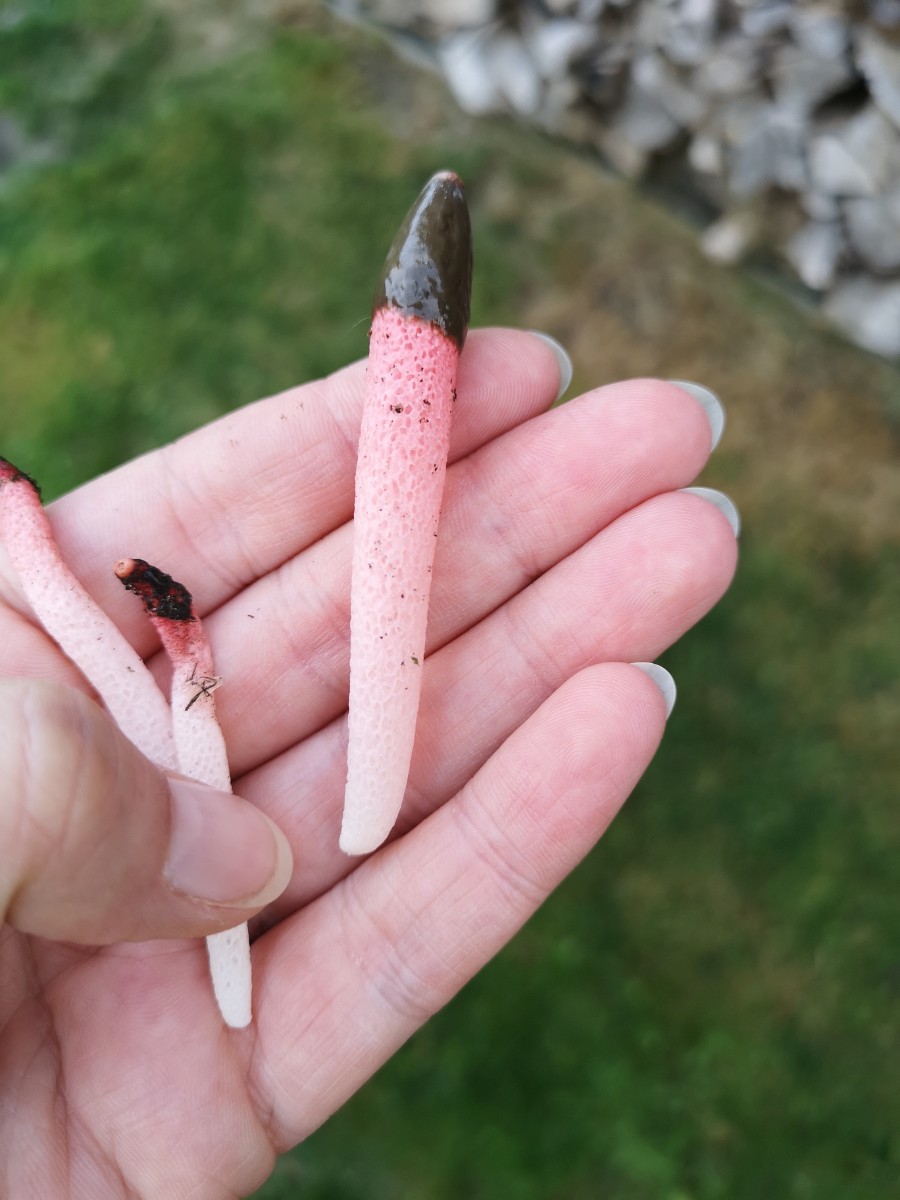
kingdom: Fungi
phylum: Basidiomycota
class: Agaricomycetes
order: Phallales
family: Phallaceae
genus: Mutinus
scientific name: Mutinus ravenelii
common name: rød stinksvamp
